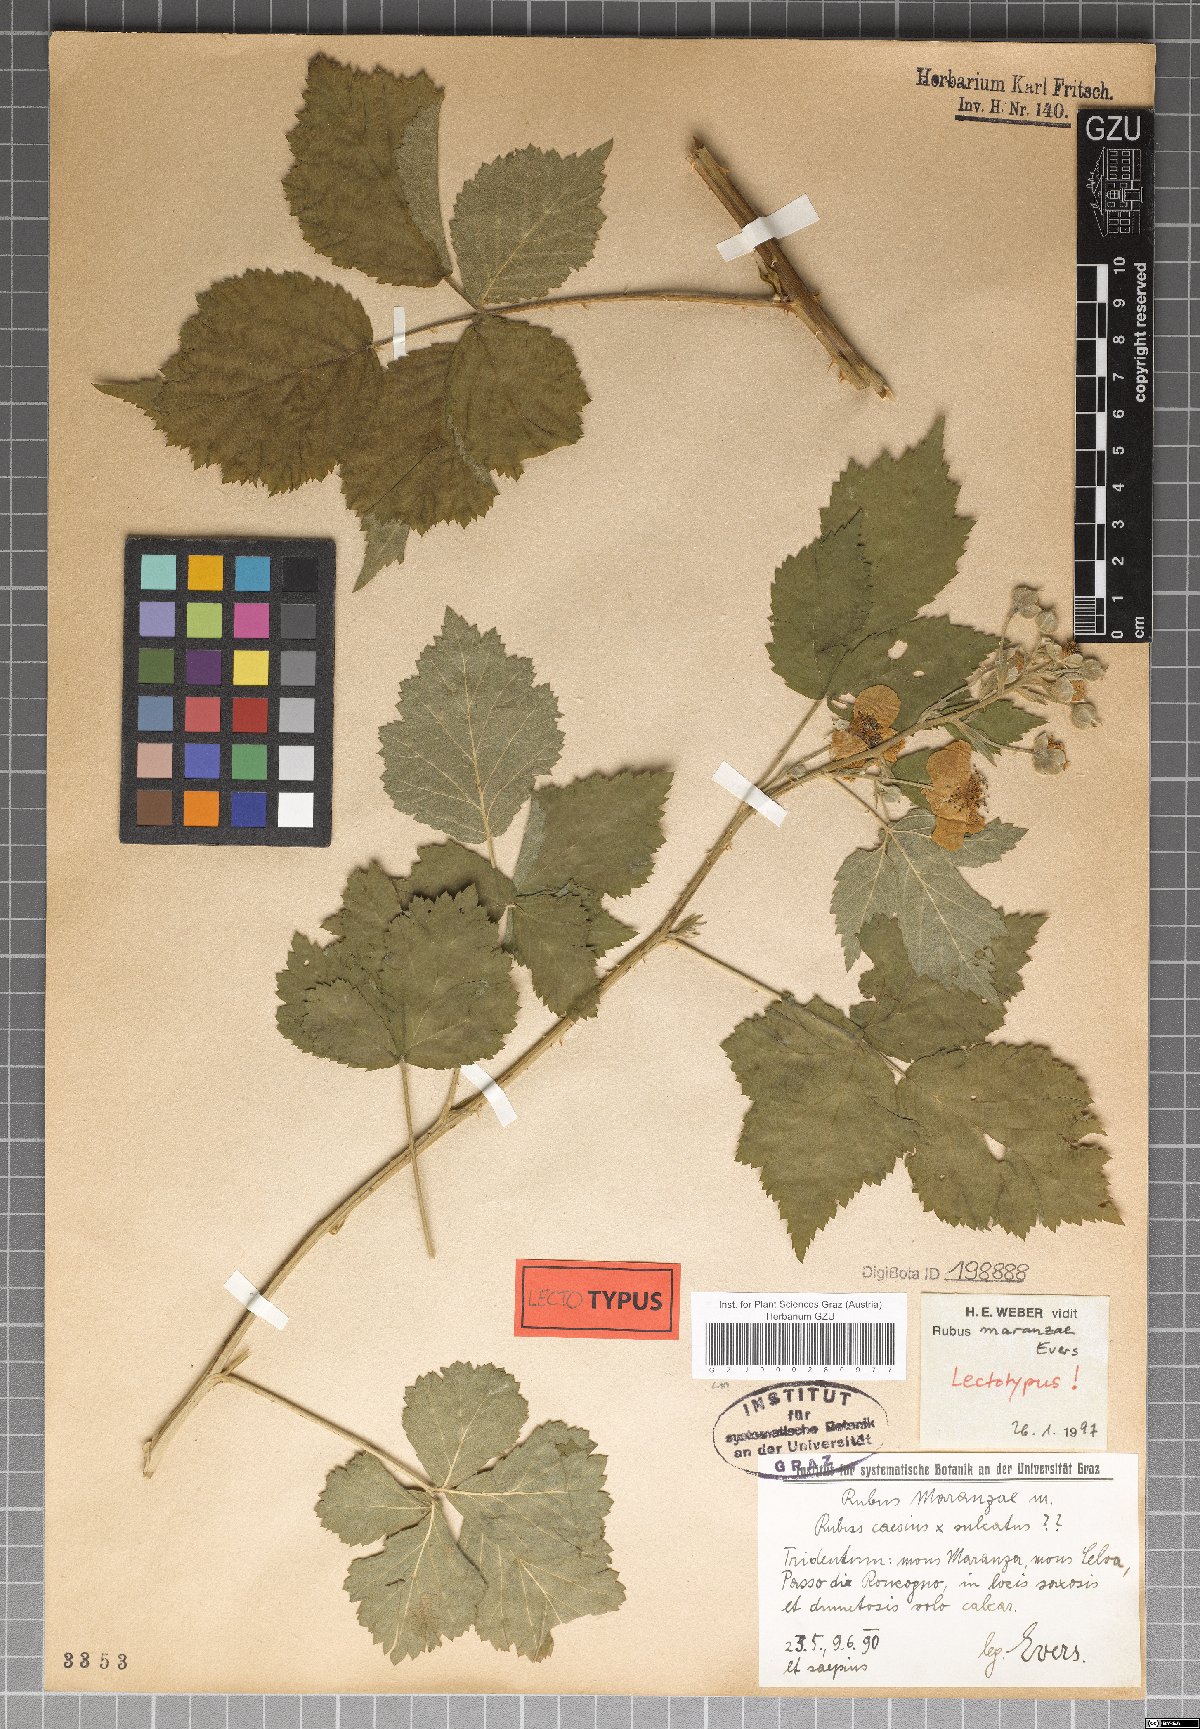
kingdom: Plantae
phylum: Tracheophyta
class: Magnoliopsida
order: Rosales
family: Rosaceae
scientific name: Rosaceae
